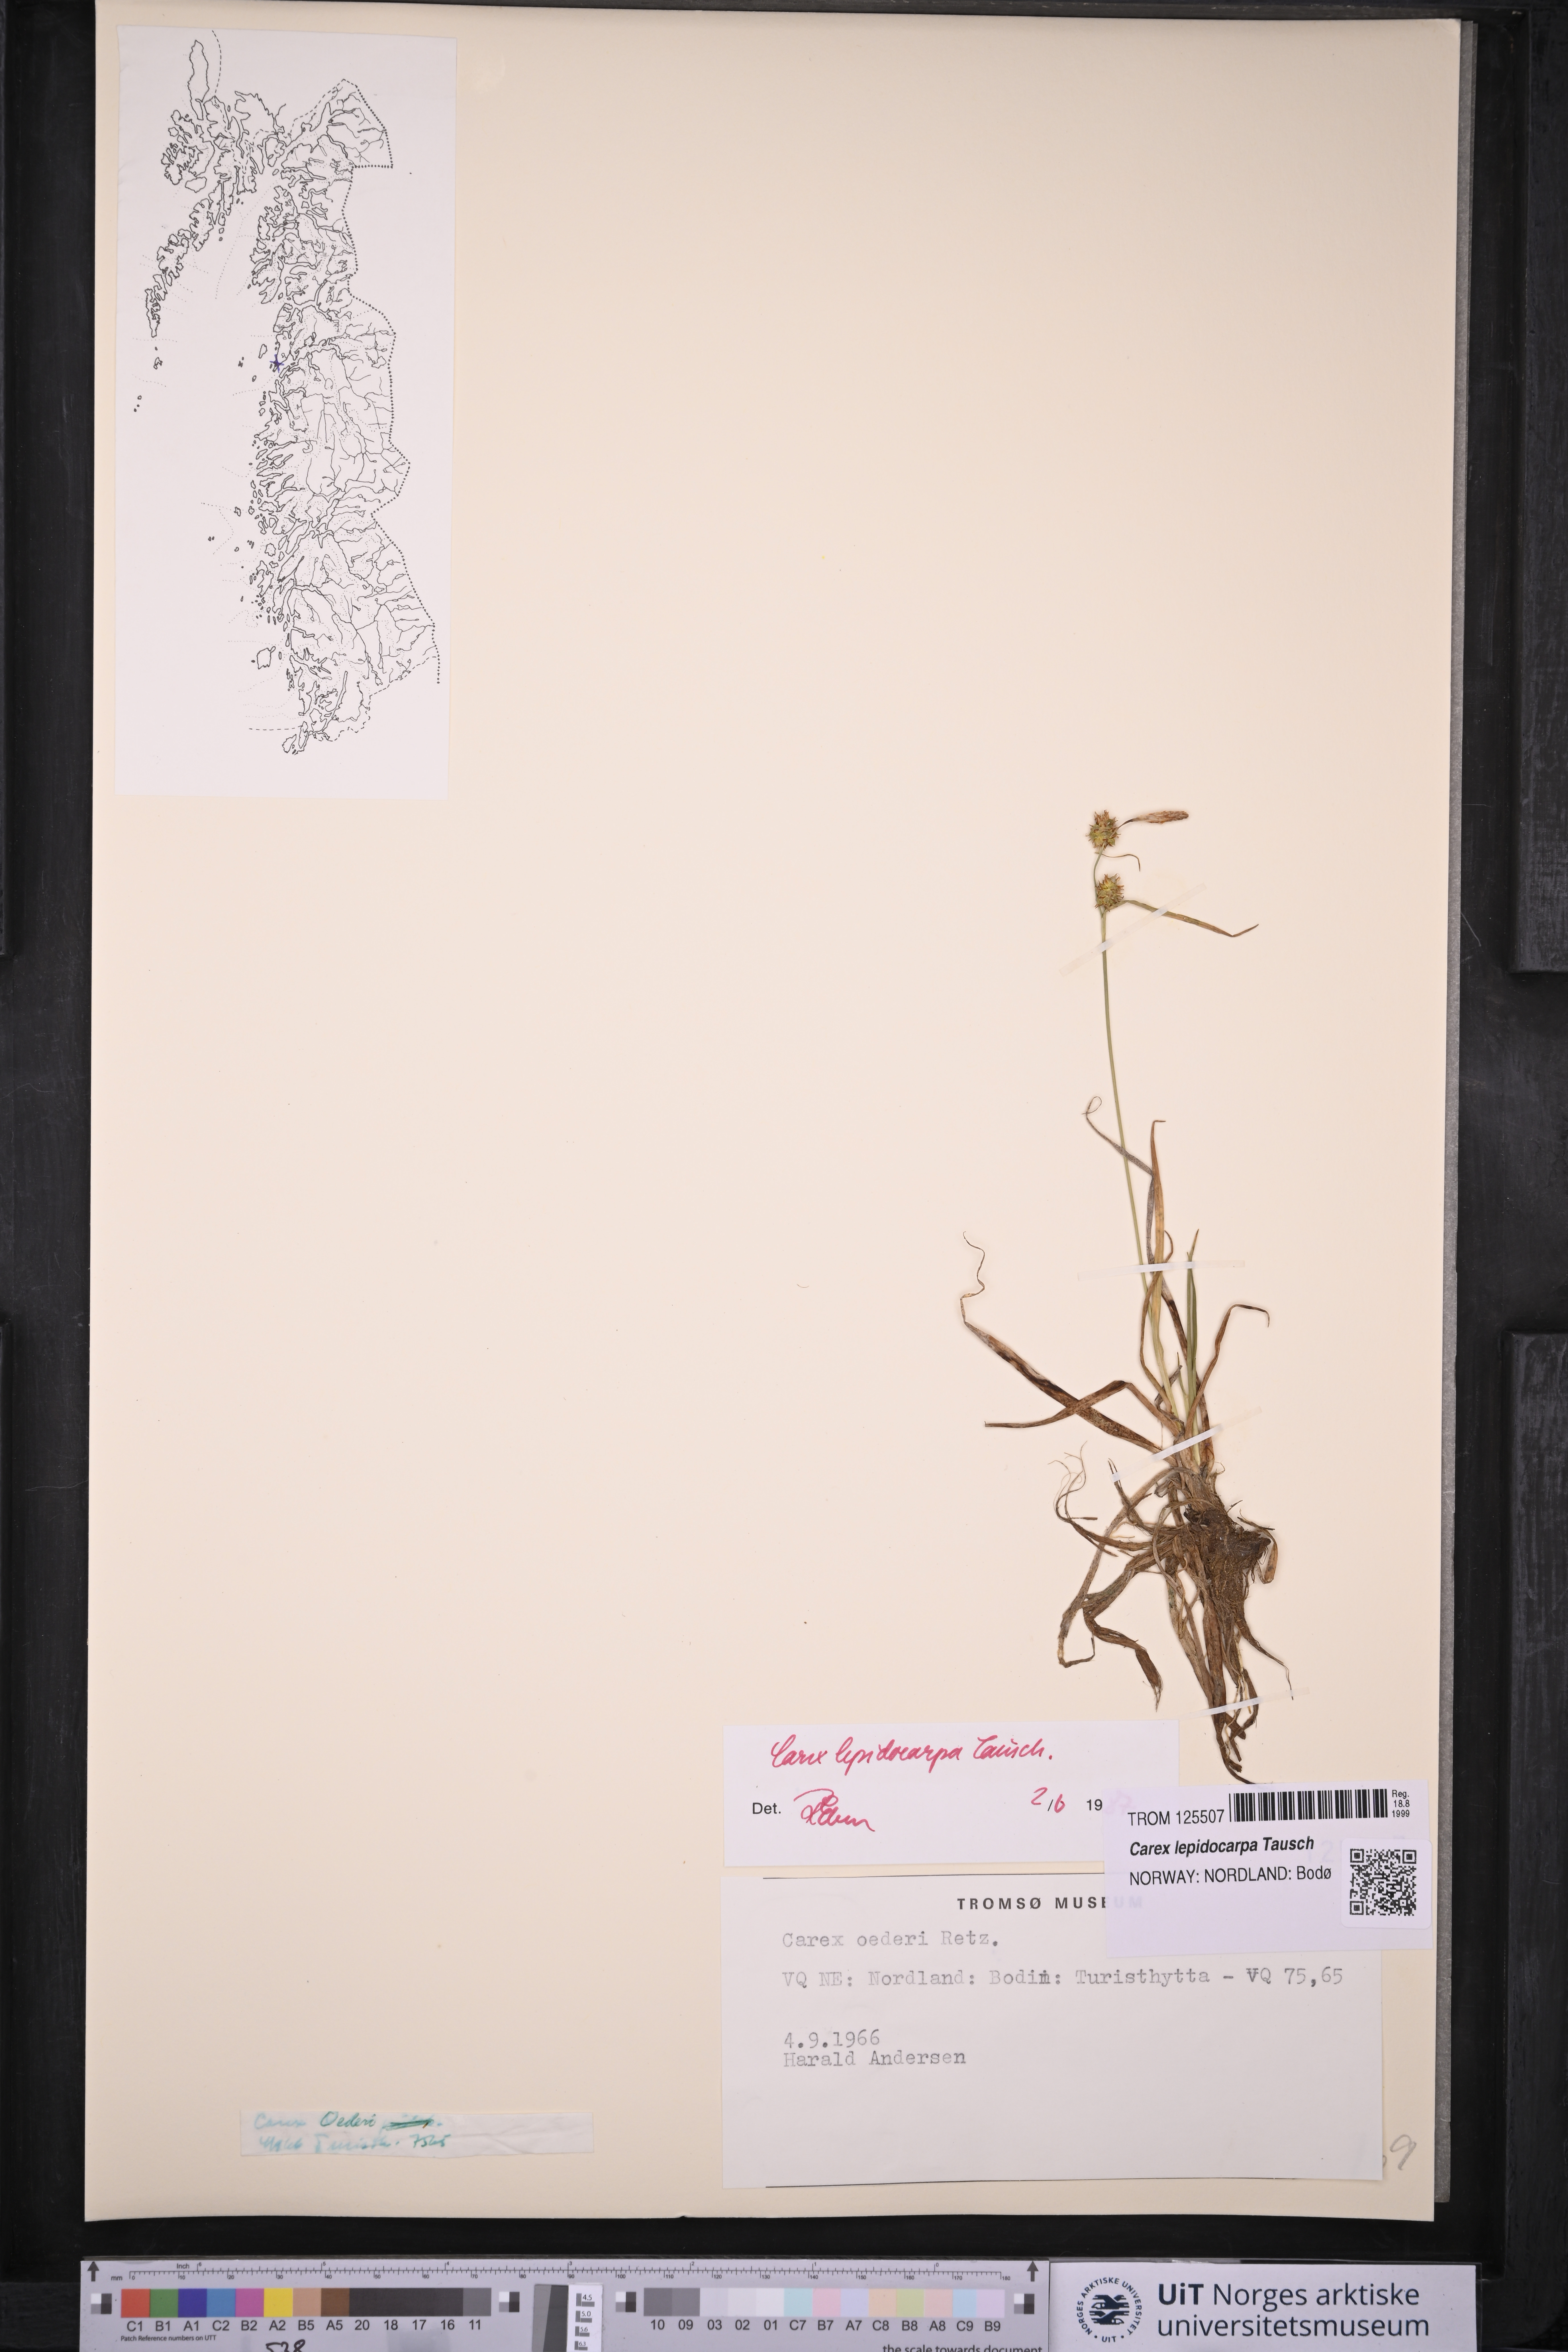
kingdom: Plantae
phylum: Tracheophyta
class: Liliopsida
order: Poales
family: Cyperaceae
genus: Carex
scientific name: Carex lepidocarpa
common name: Long-stalked yellow-sedge
